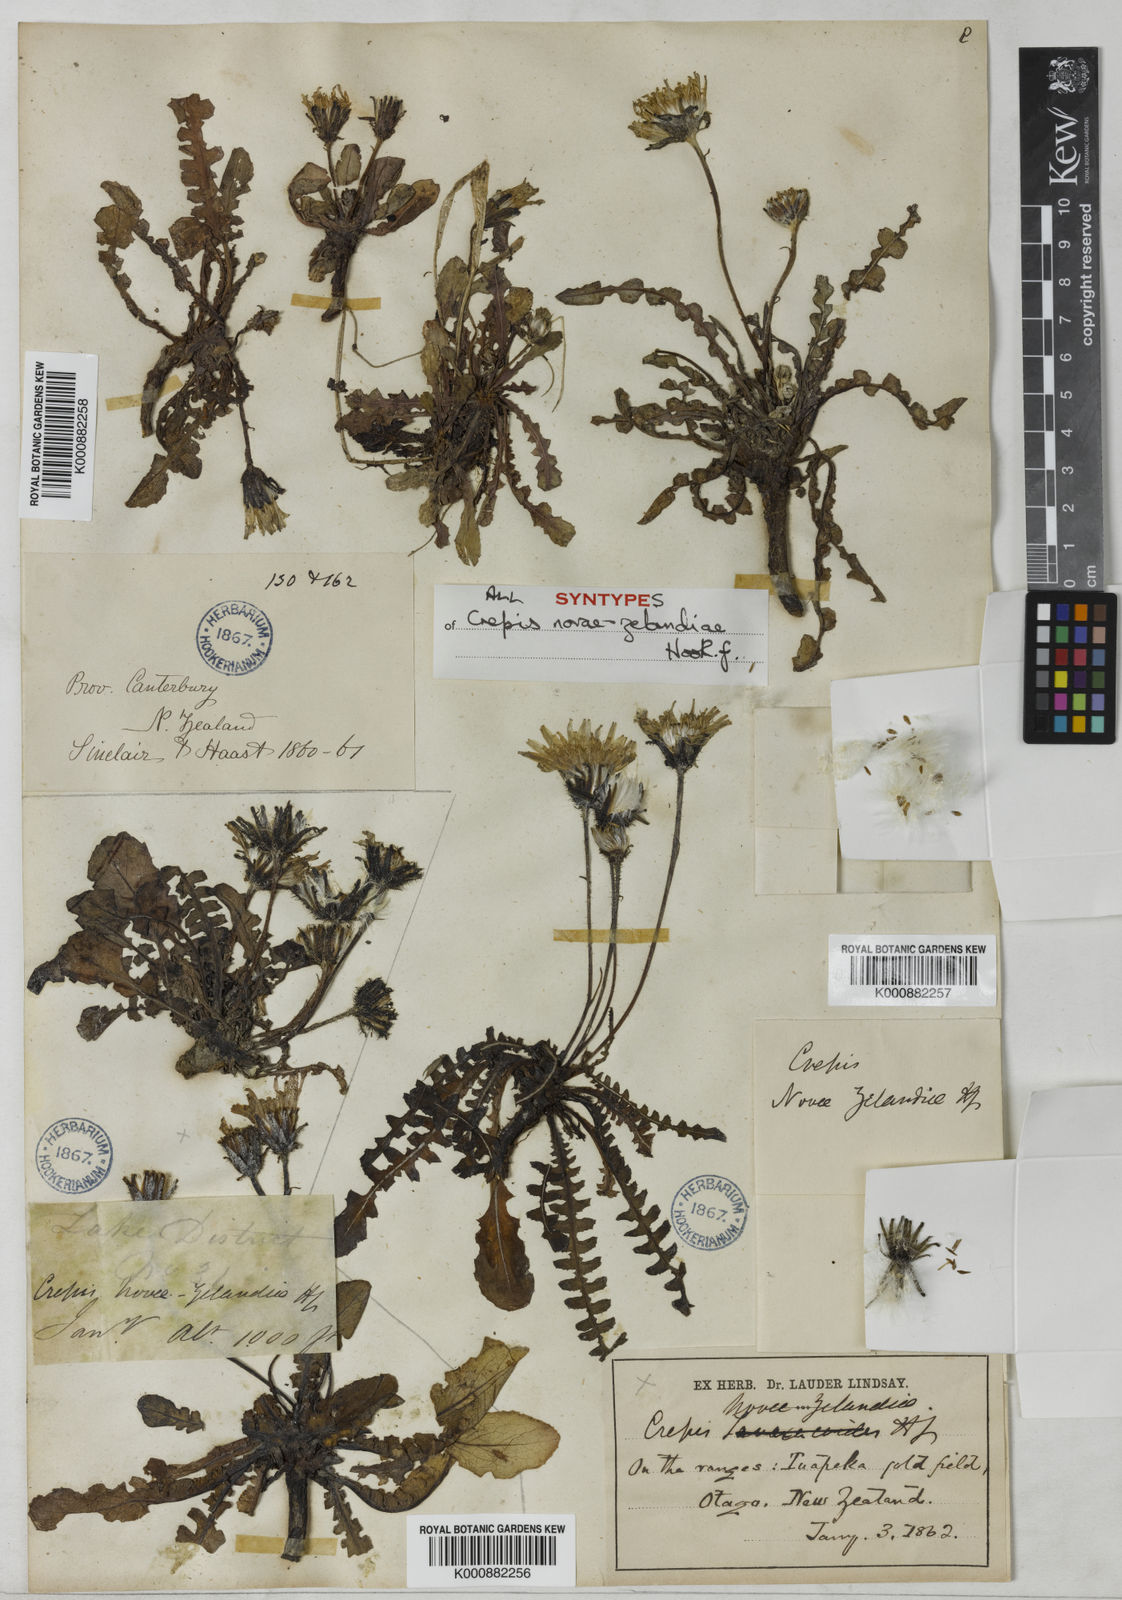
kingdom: Plantae
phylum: Tracheophyta
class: Magnoliopsida
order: Asterales
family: Asteraceae
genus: Sonchus
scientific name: Sonchus novae-zelandiae
